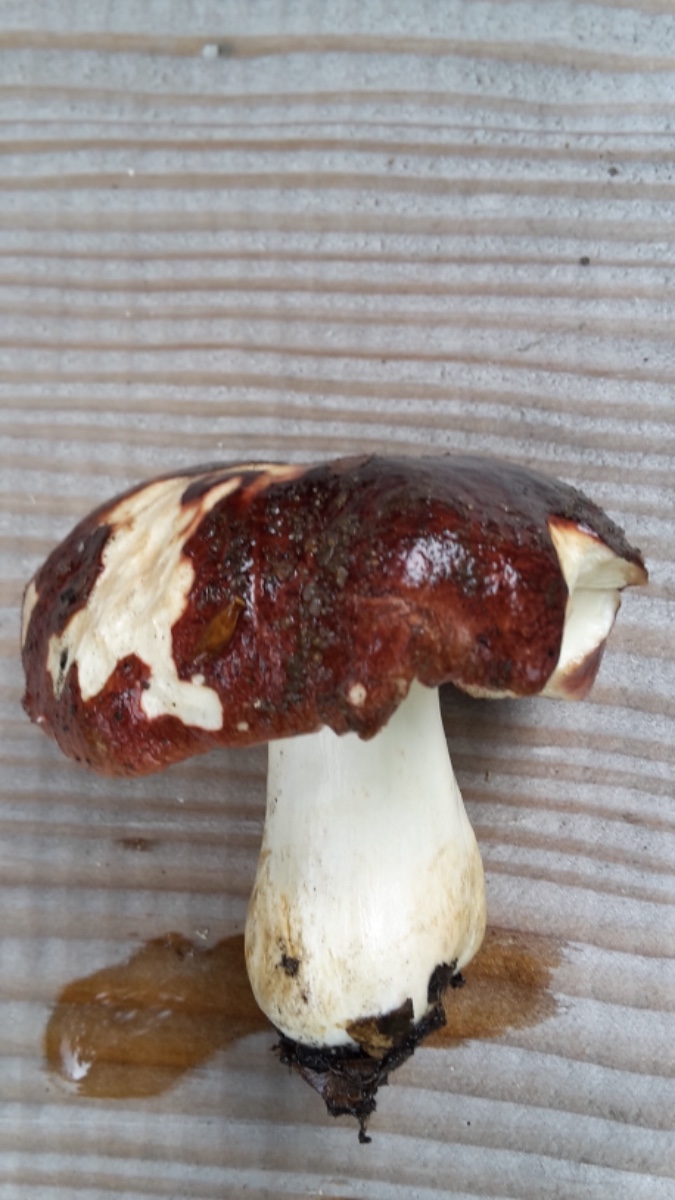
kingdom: Fungi
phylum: Basidiomycota
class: Agaricomycetes
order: Russulales
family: Russulaceae
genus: Russula
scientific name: Russula graveolens
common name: bugtet skørhat
